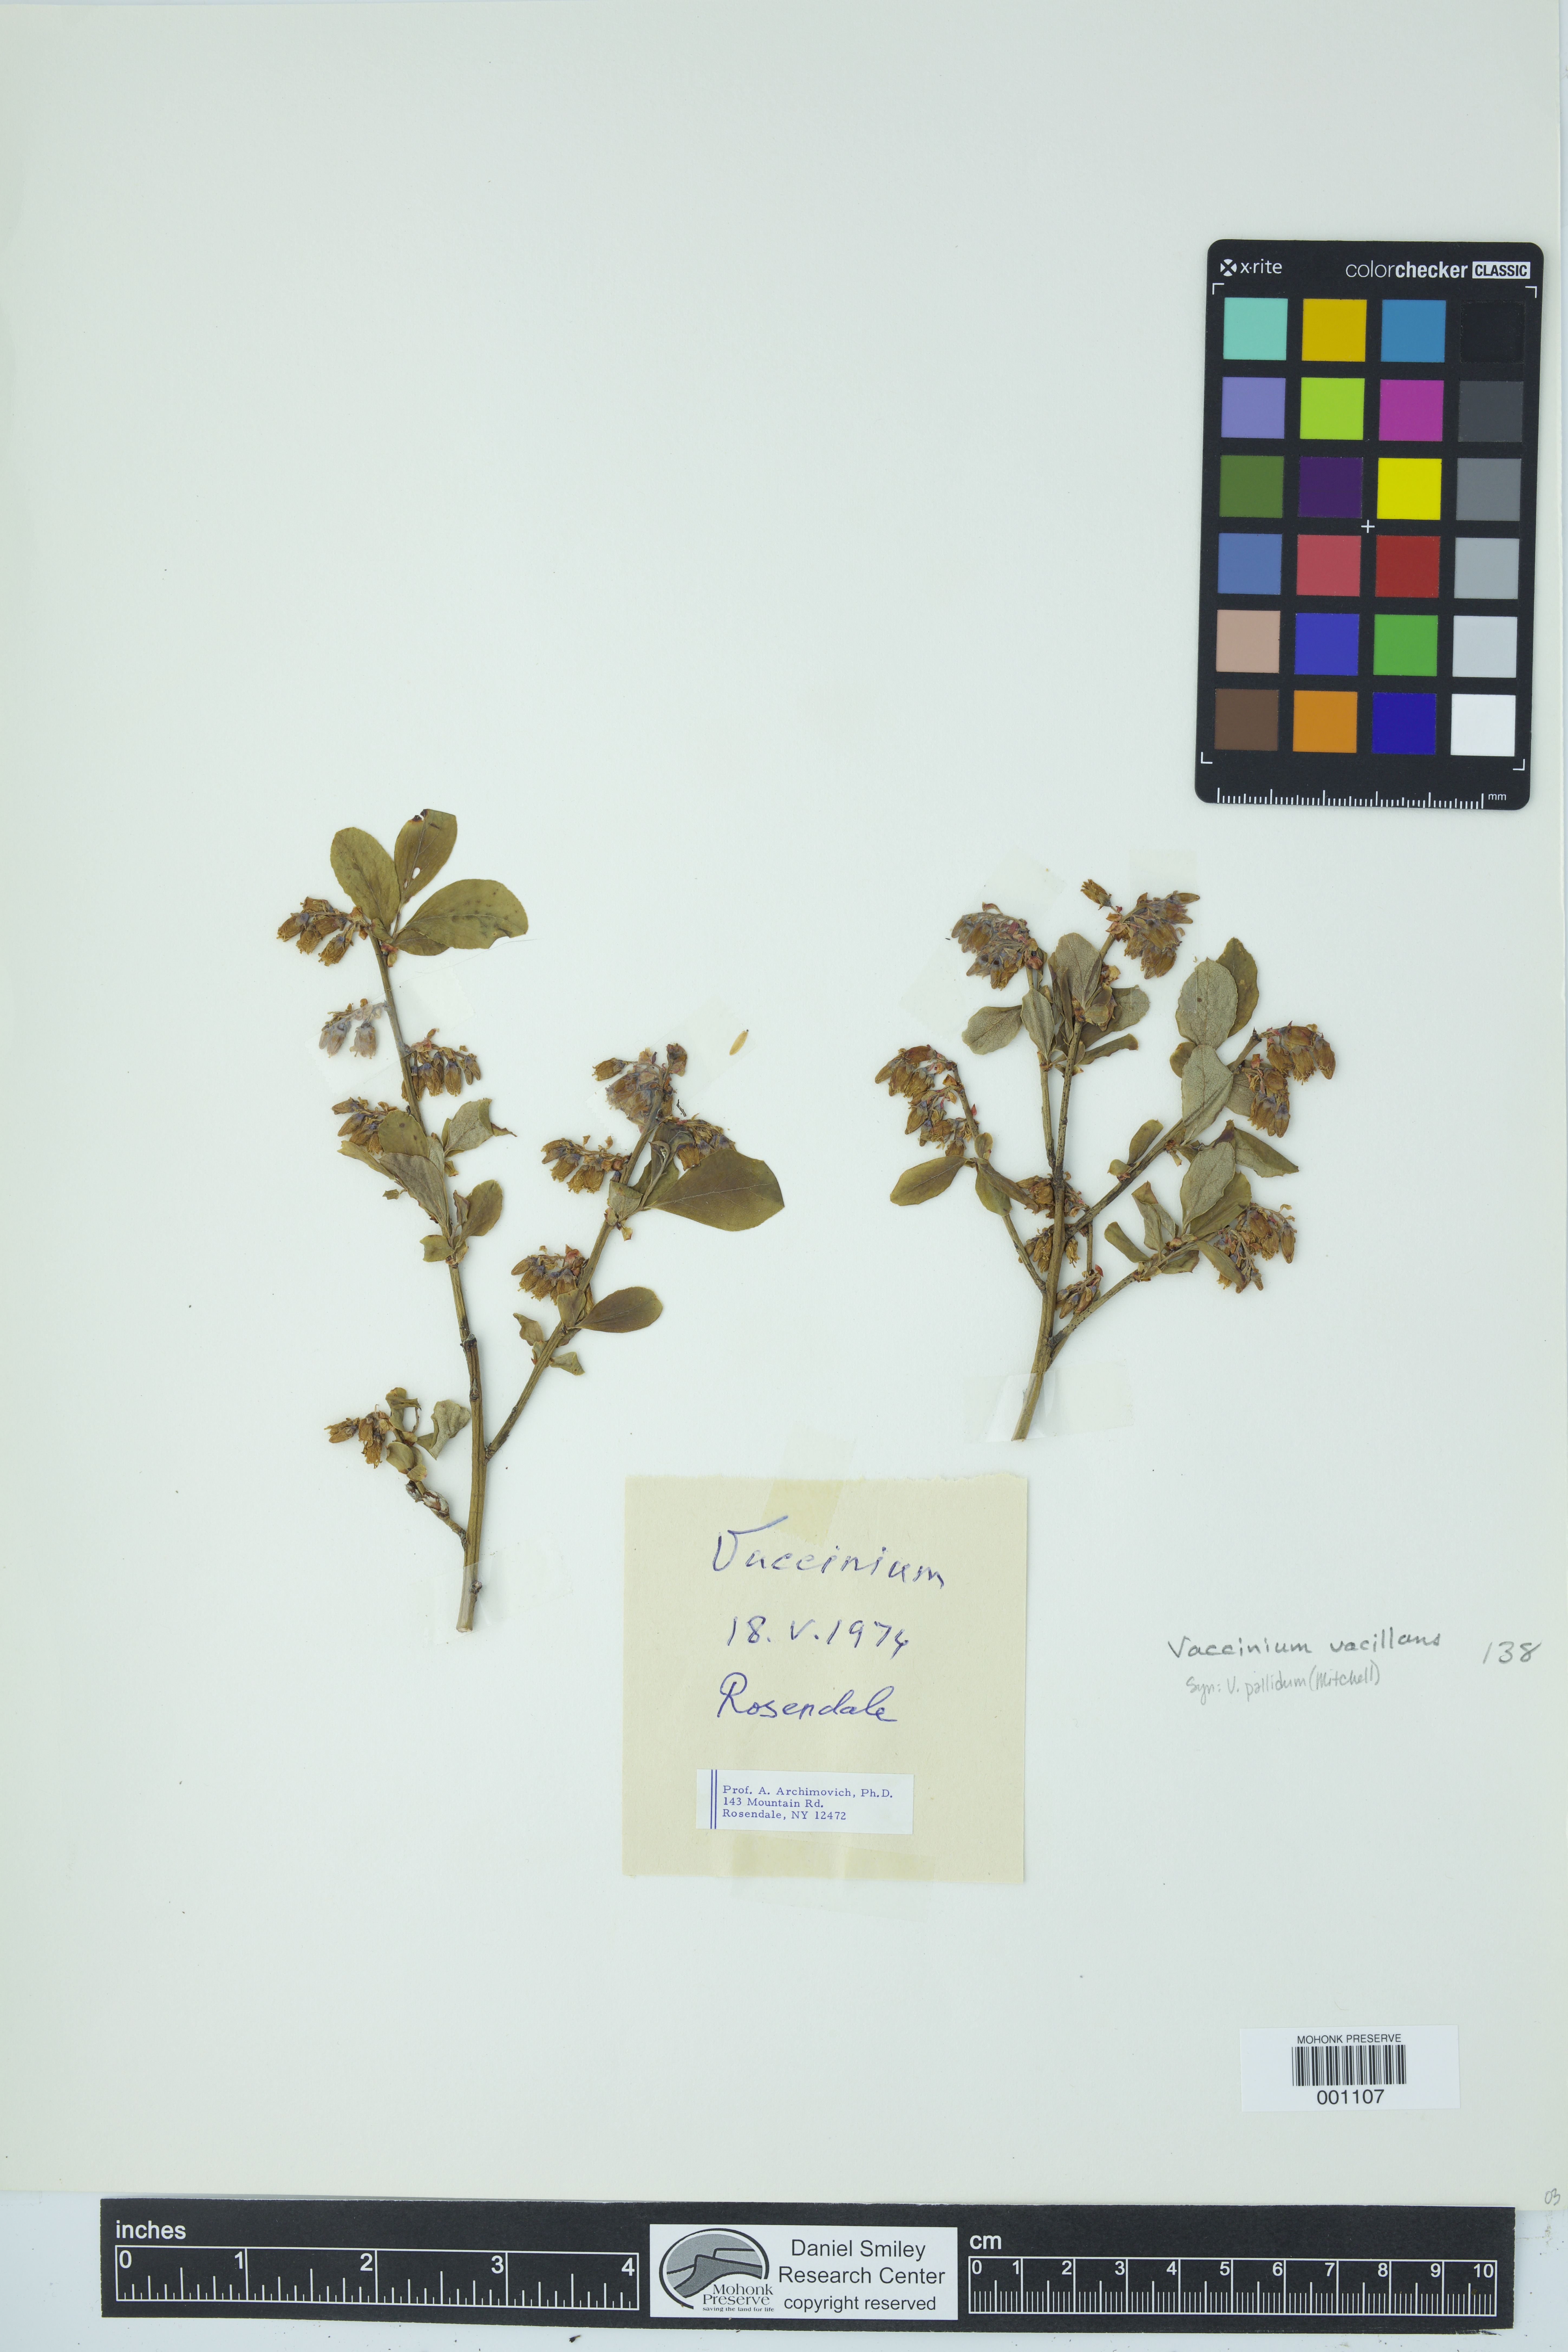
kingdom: Plantae
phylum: Tracheophyta
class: Magnoliopsida
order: Ericales
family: Ericaceae
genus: Vaccinium
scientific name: Vaccinium pallidum
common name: Blue ridge blueberry
